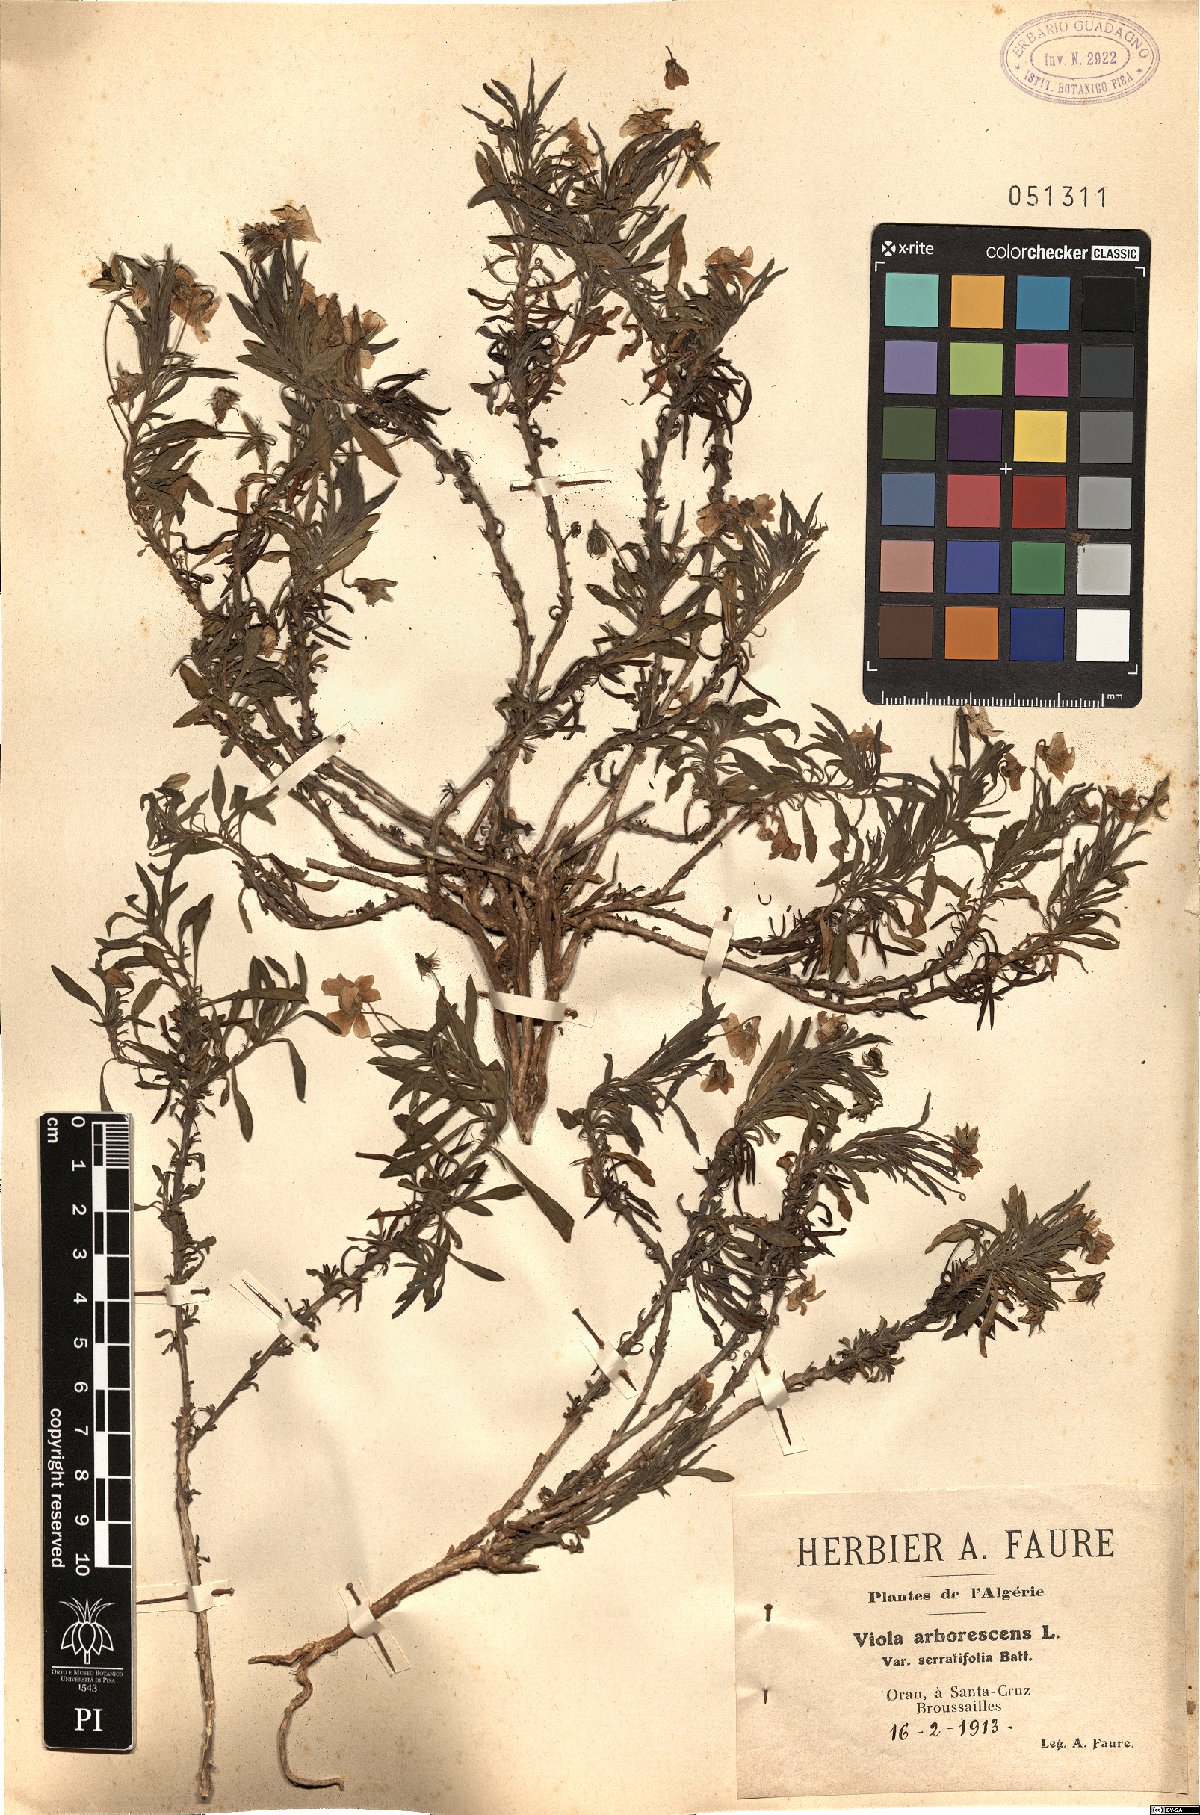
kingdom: Plantae
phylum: Tracheophyta
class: Magnoliopsida
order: Malpighiales
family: Violaceae
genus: Viola
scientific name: Viola arborescens
